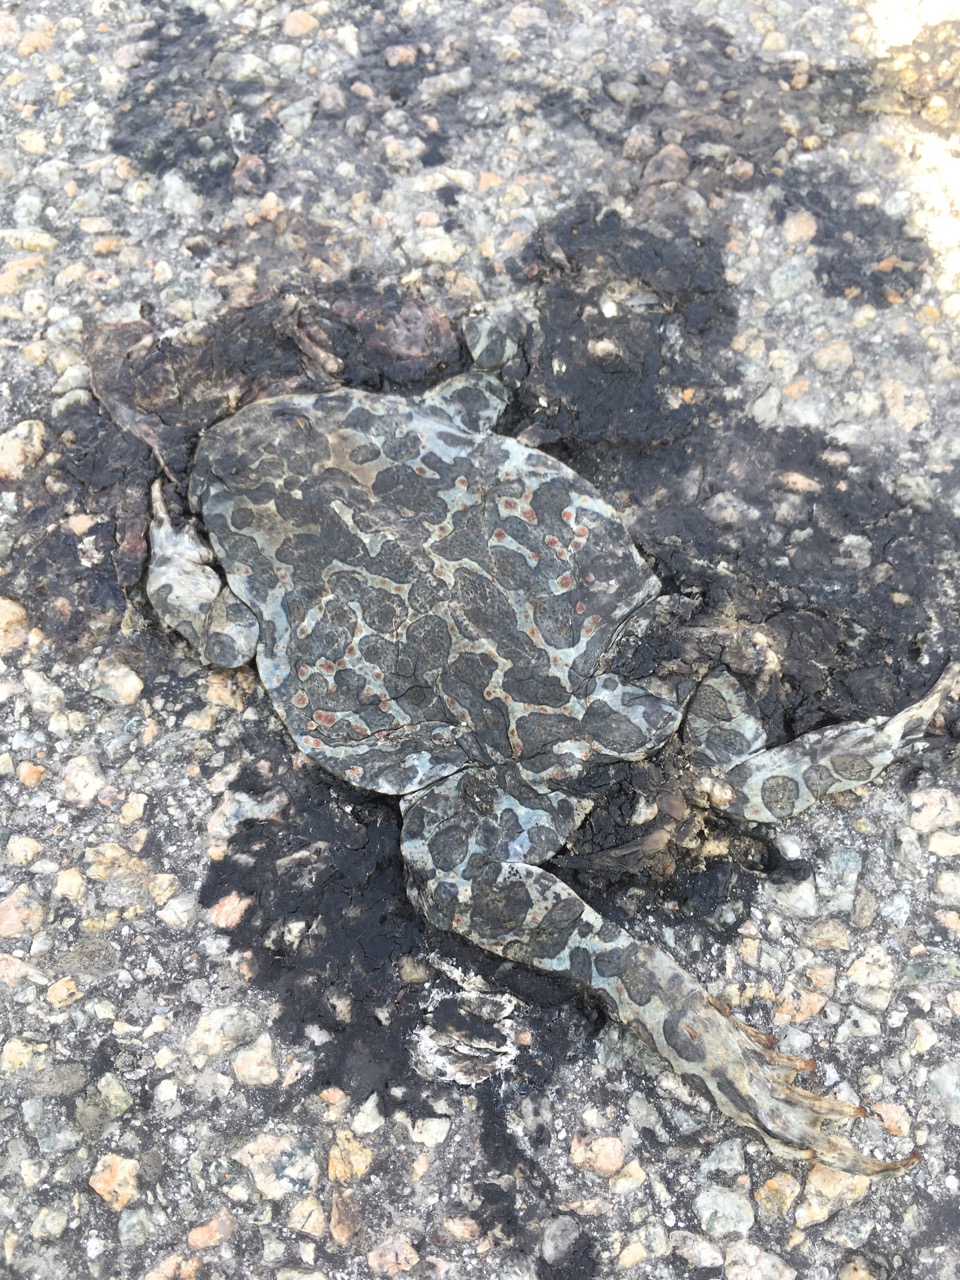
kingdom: Animalia
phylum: Chordata
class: Amphibia
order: Anura
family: Bufonidae
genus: Bufotes
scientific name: Bufotes viridis
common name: European green toad
